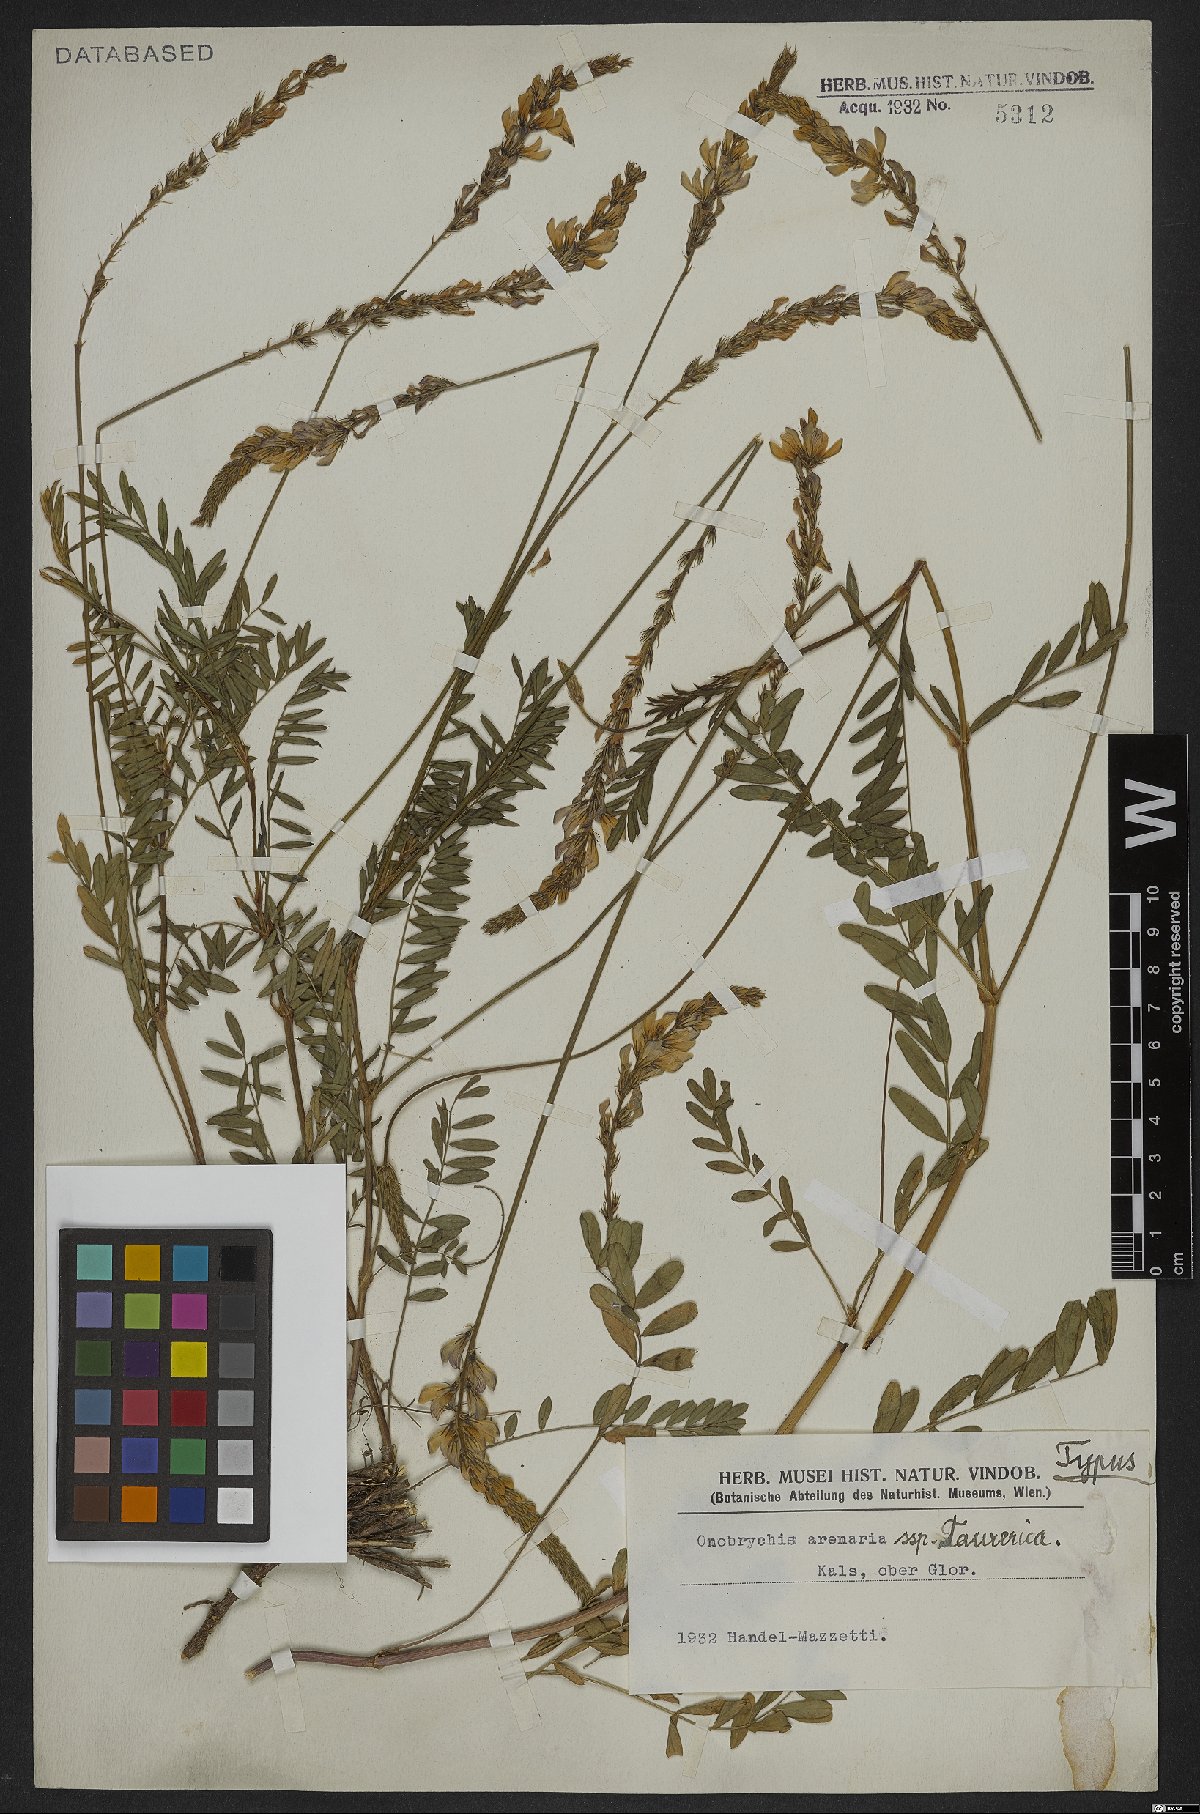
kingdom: Plantae
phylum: Tracheophyta
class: Magnoliopsida
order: Fabales
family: Fabaceae
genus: Onobrychis
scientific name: Onobrychis arenaria
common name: Sand esparcet
